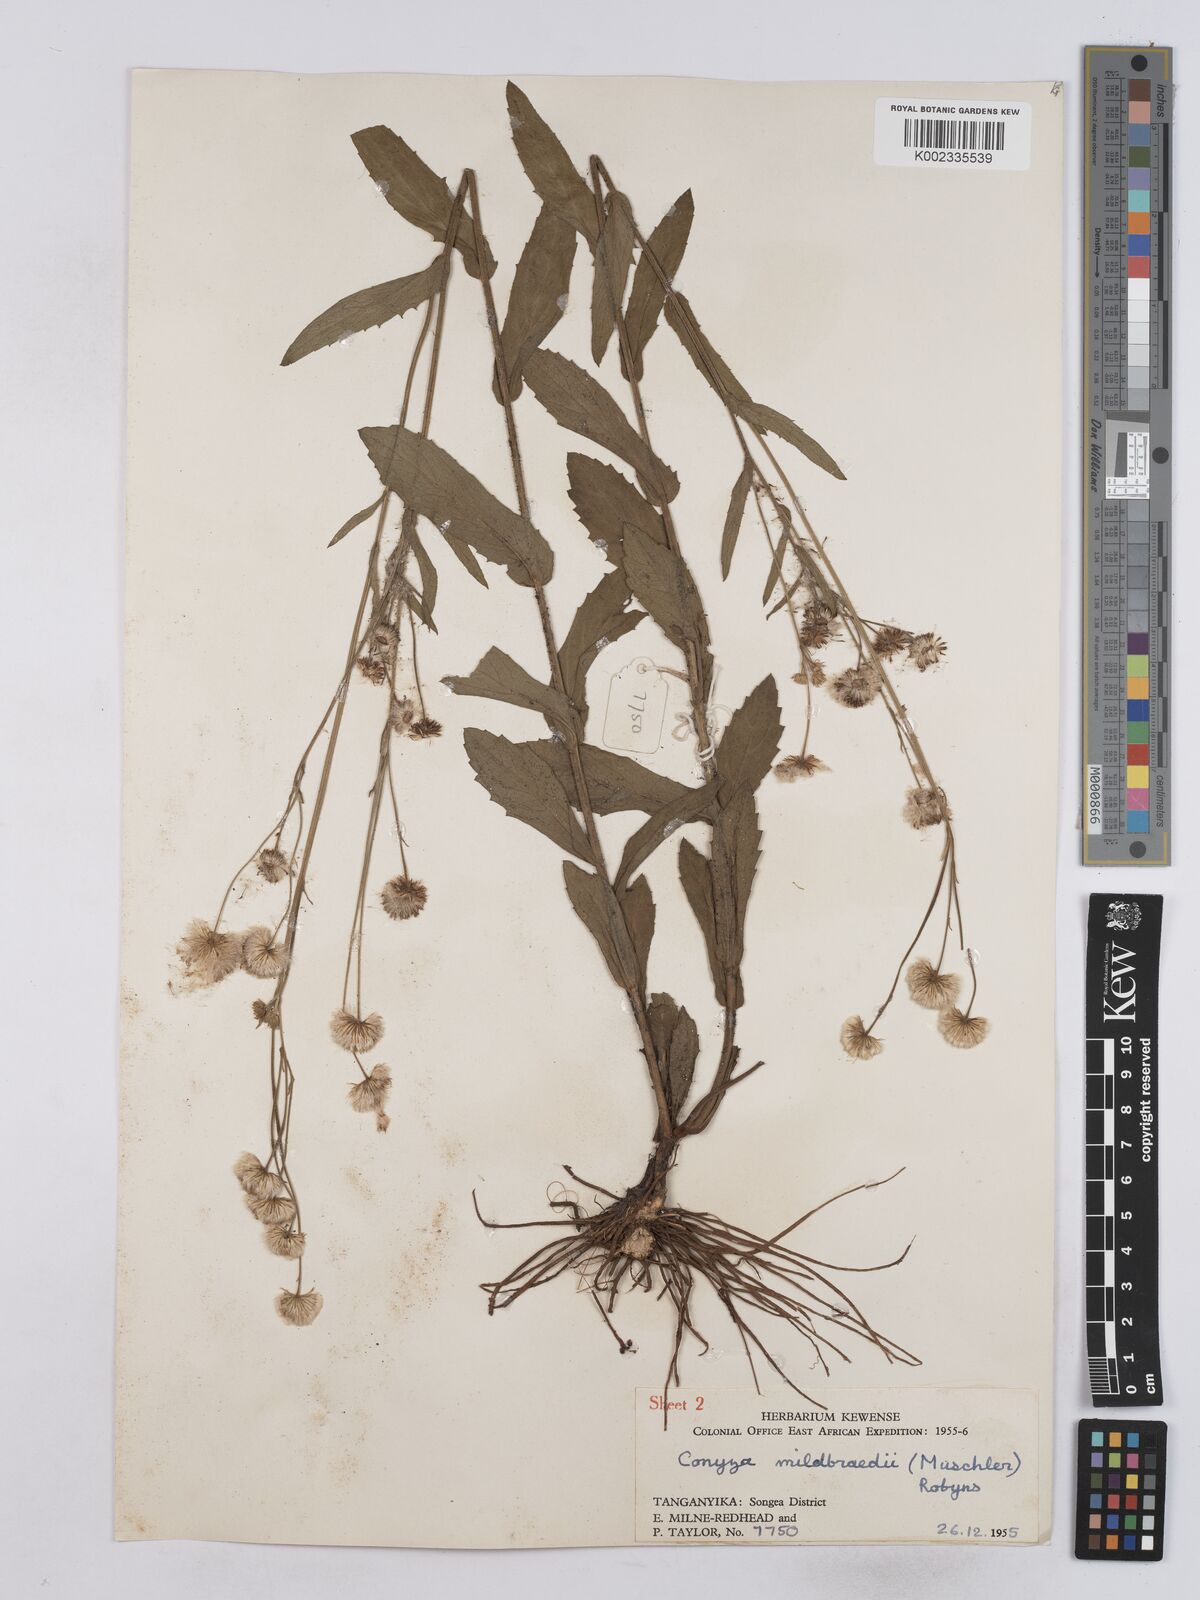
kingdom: Plantae
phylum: Tracheophyta
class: Magnoliopsida
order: Asterales
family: Asteraceae
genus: Conyza
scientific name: Conyza limosa
